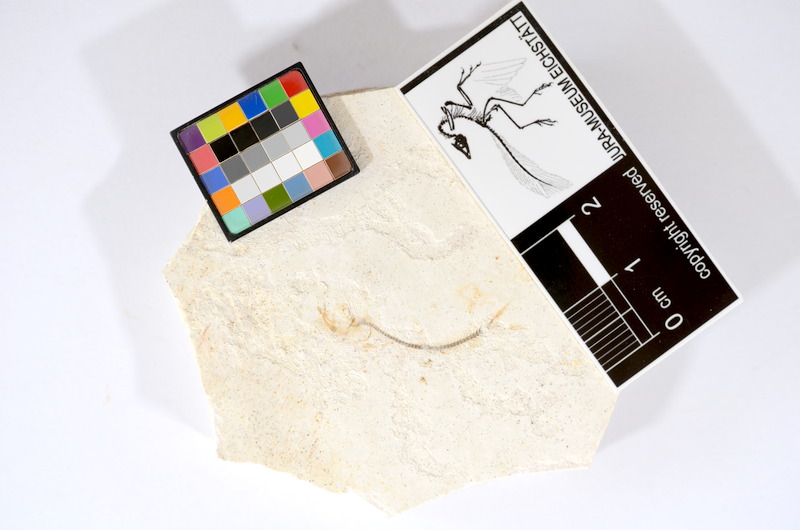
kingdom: Animalia
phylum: Chordata
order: Salmoniformes
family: Orthogonikleithridae
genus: Orthogonikleithrus
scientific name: Orthogonikleithrus hoelli
